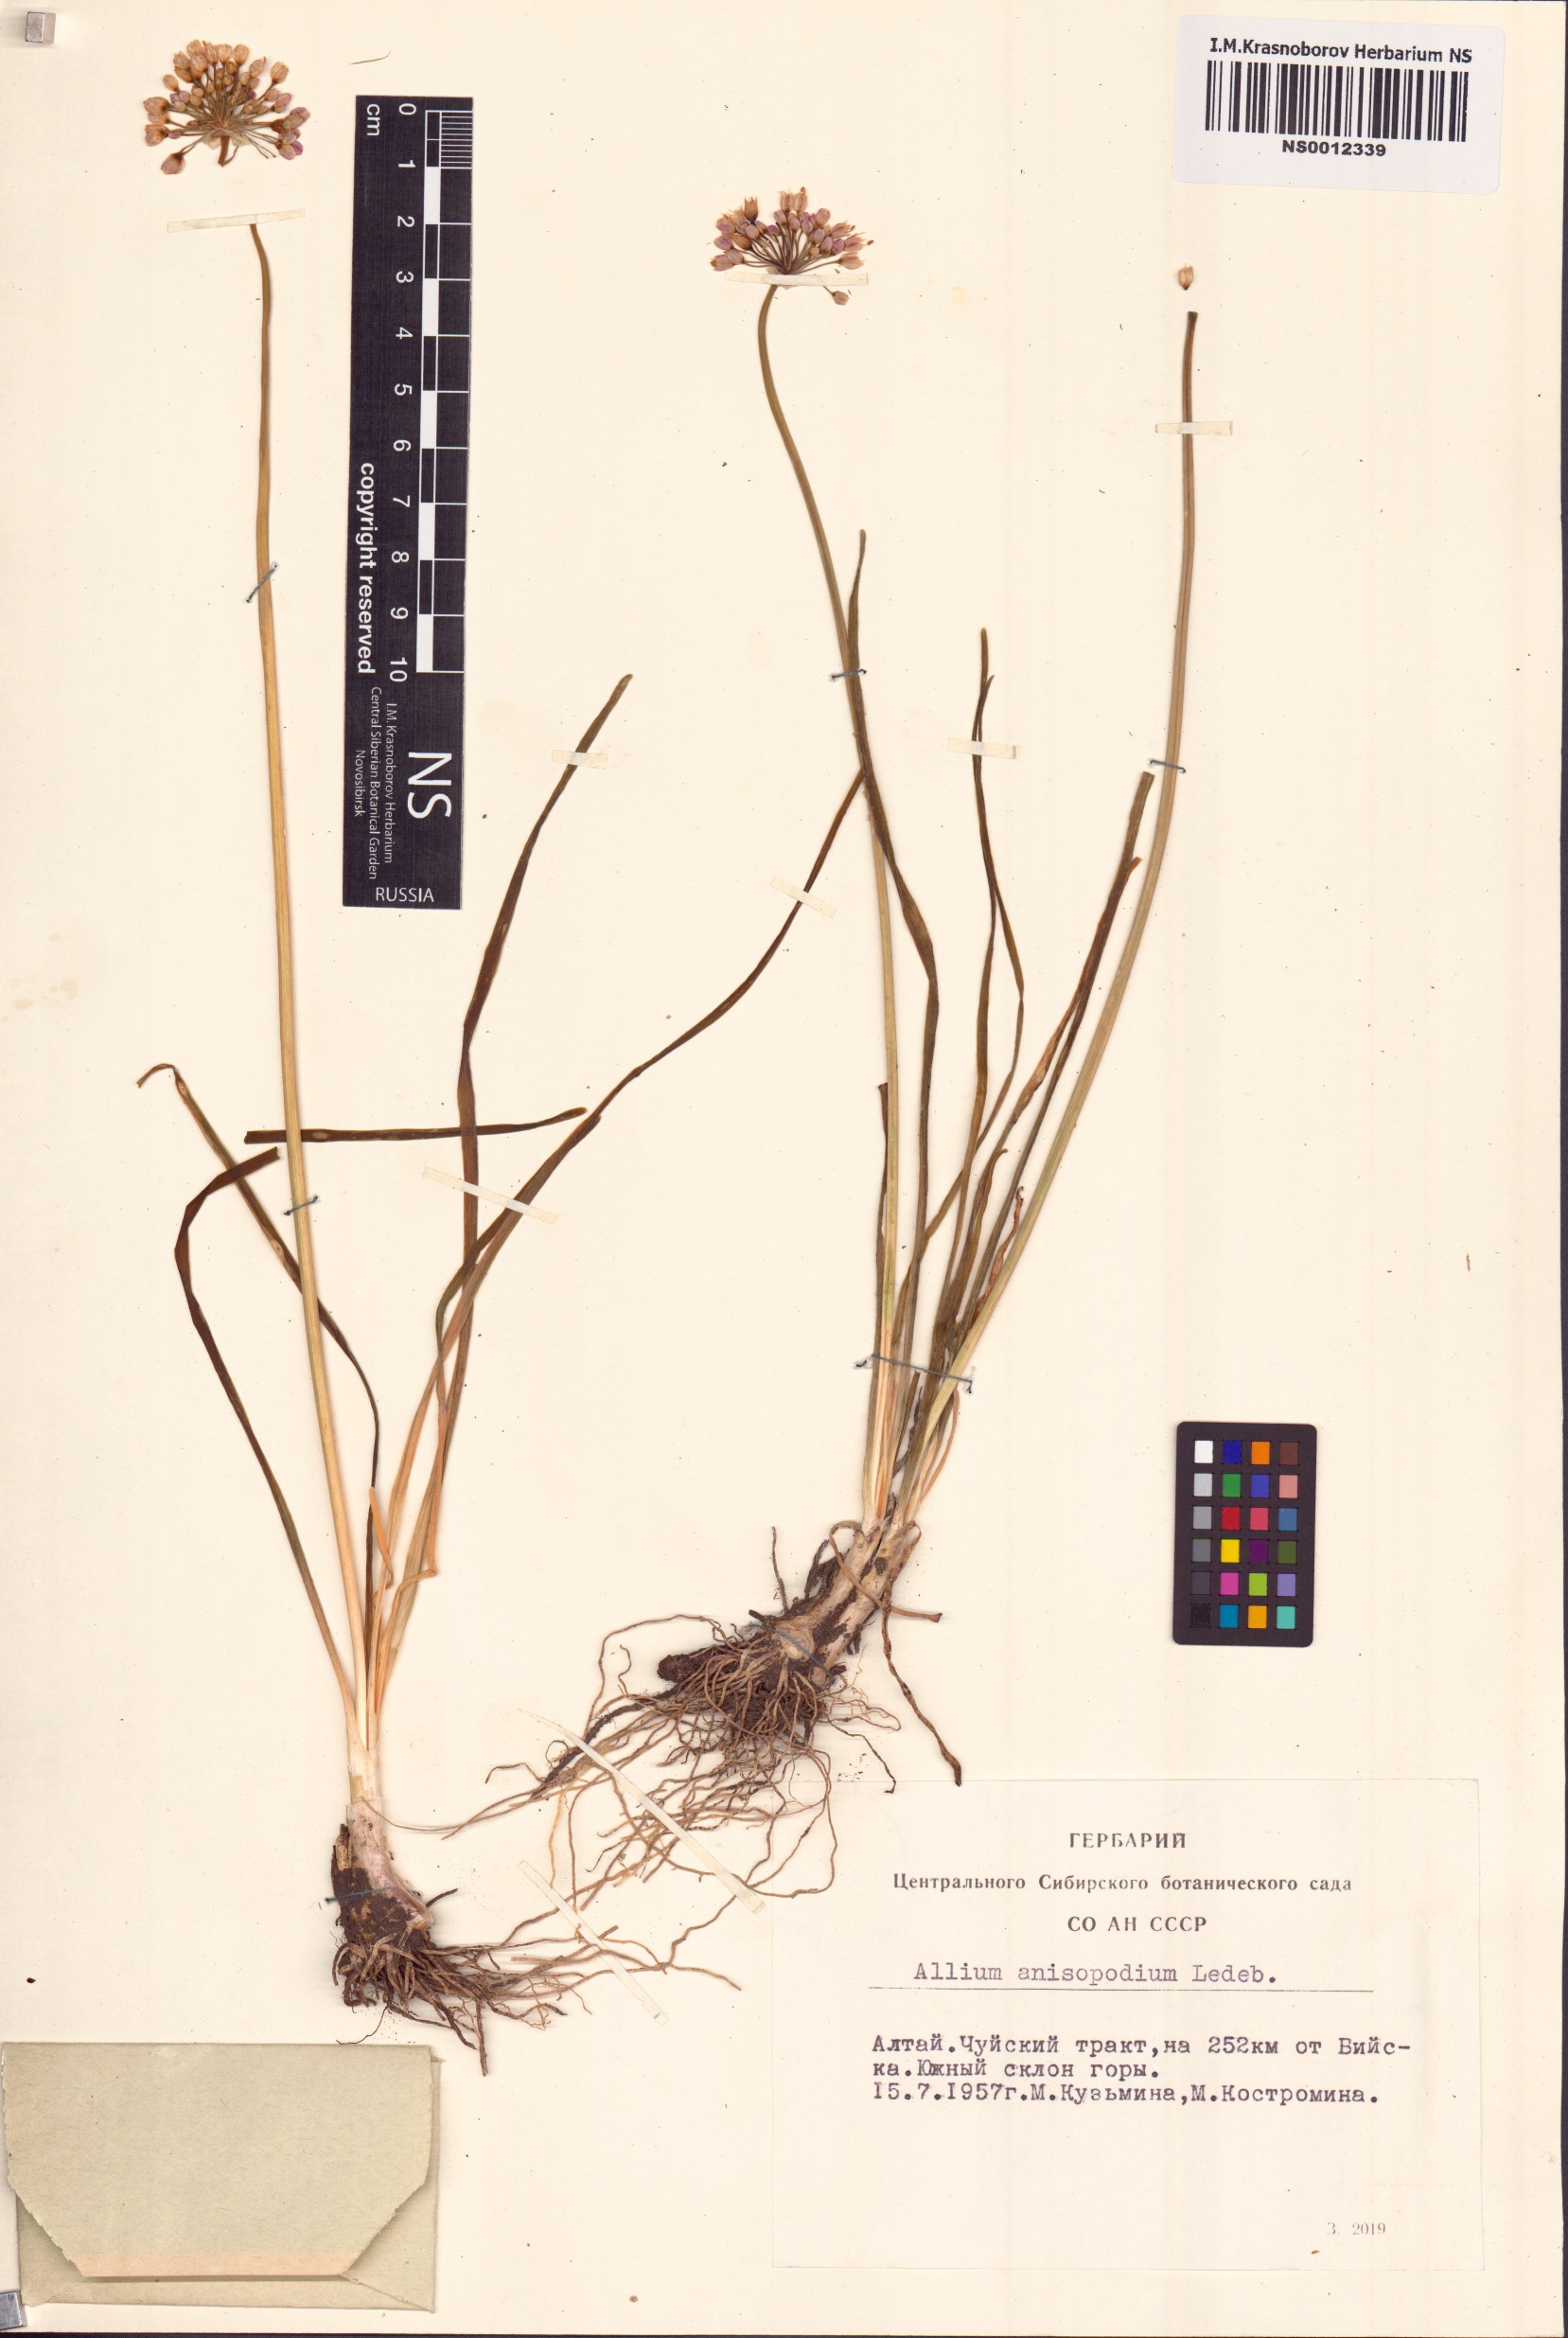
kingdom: Plantae
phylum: Tracheophyta
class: Liliopsida
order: Asparagales
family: Amaryllidaceae
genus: Allium
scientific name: Allium anisopodium
